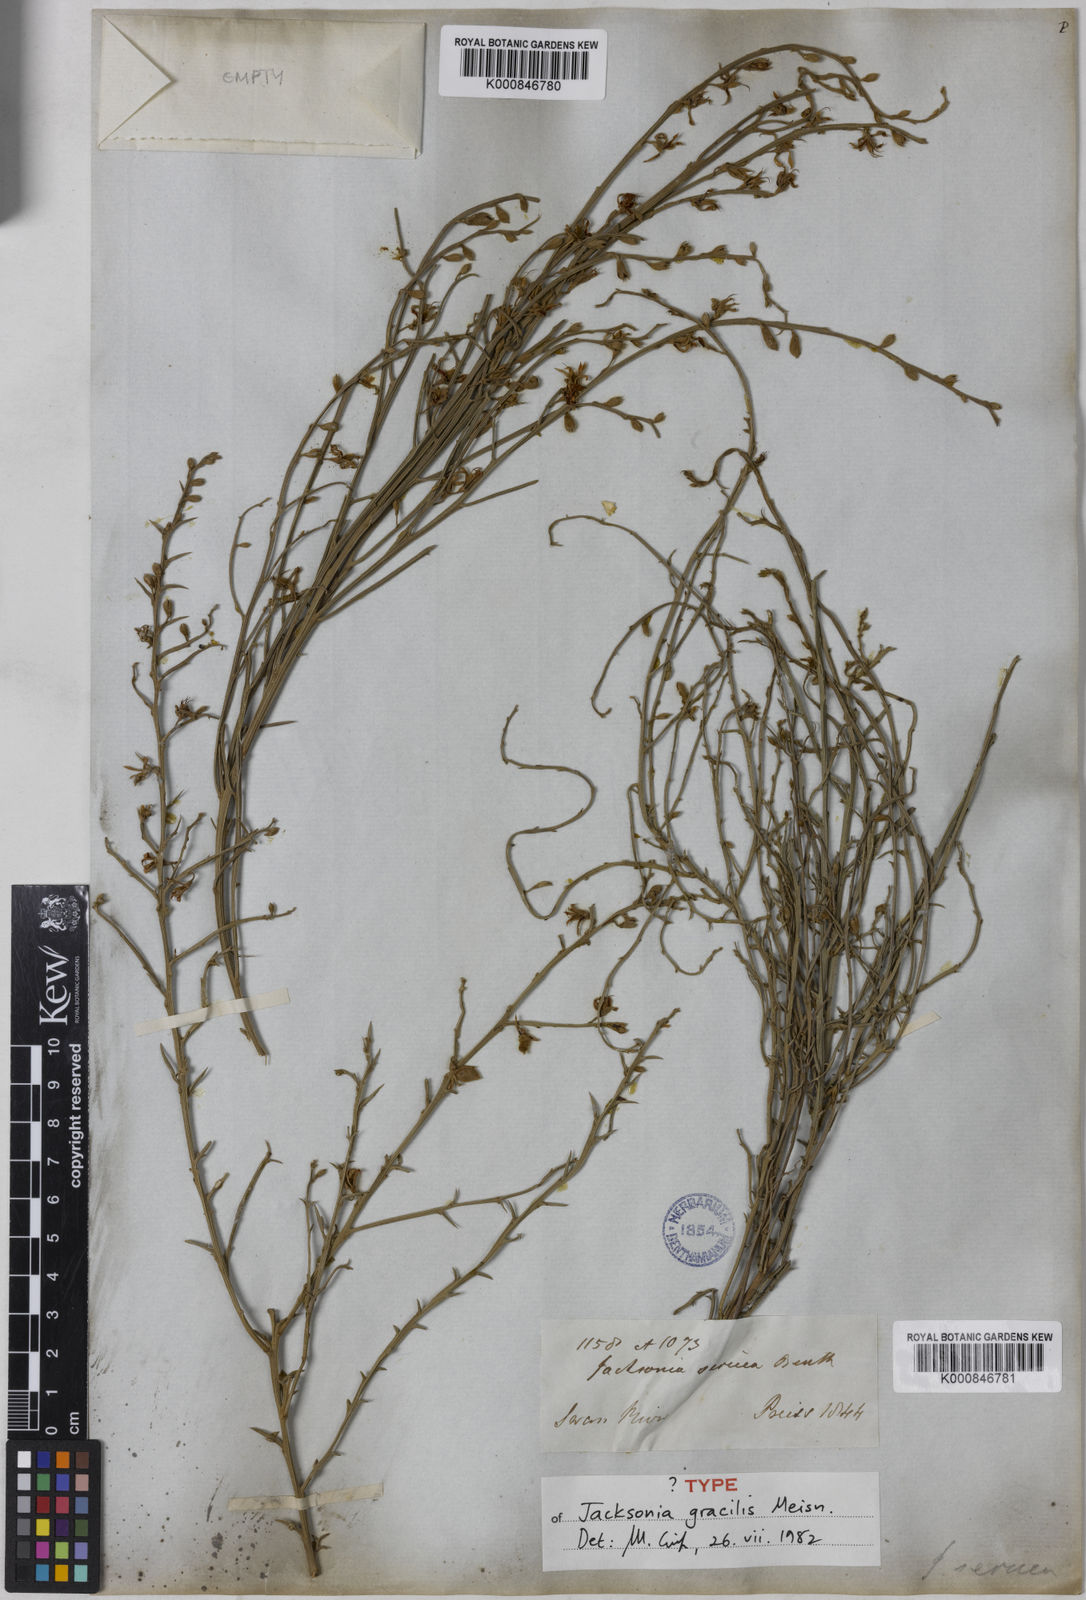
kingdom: Plantae
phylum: Tracheophyta
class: Magnoliopsida
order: Fabales
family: Fabaceae
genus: Jacksonia
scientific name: Jacksonia sericea
